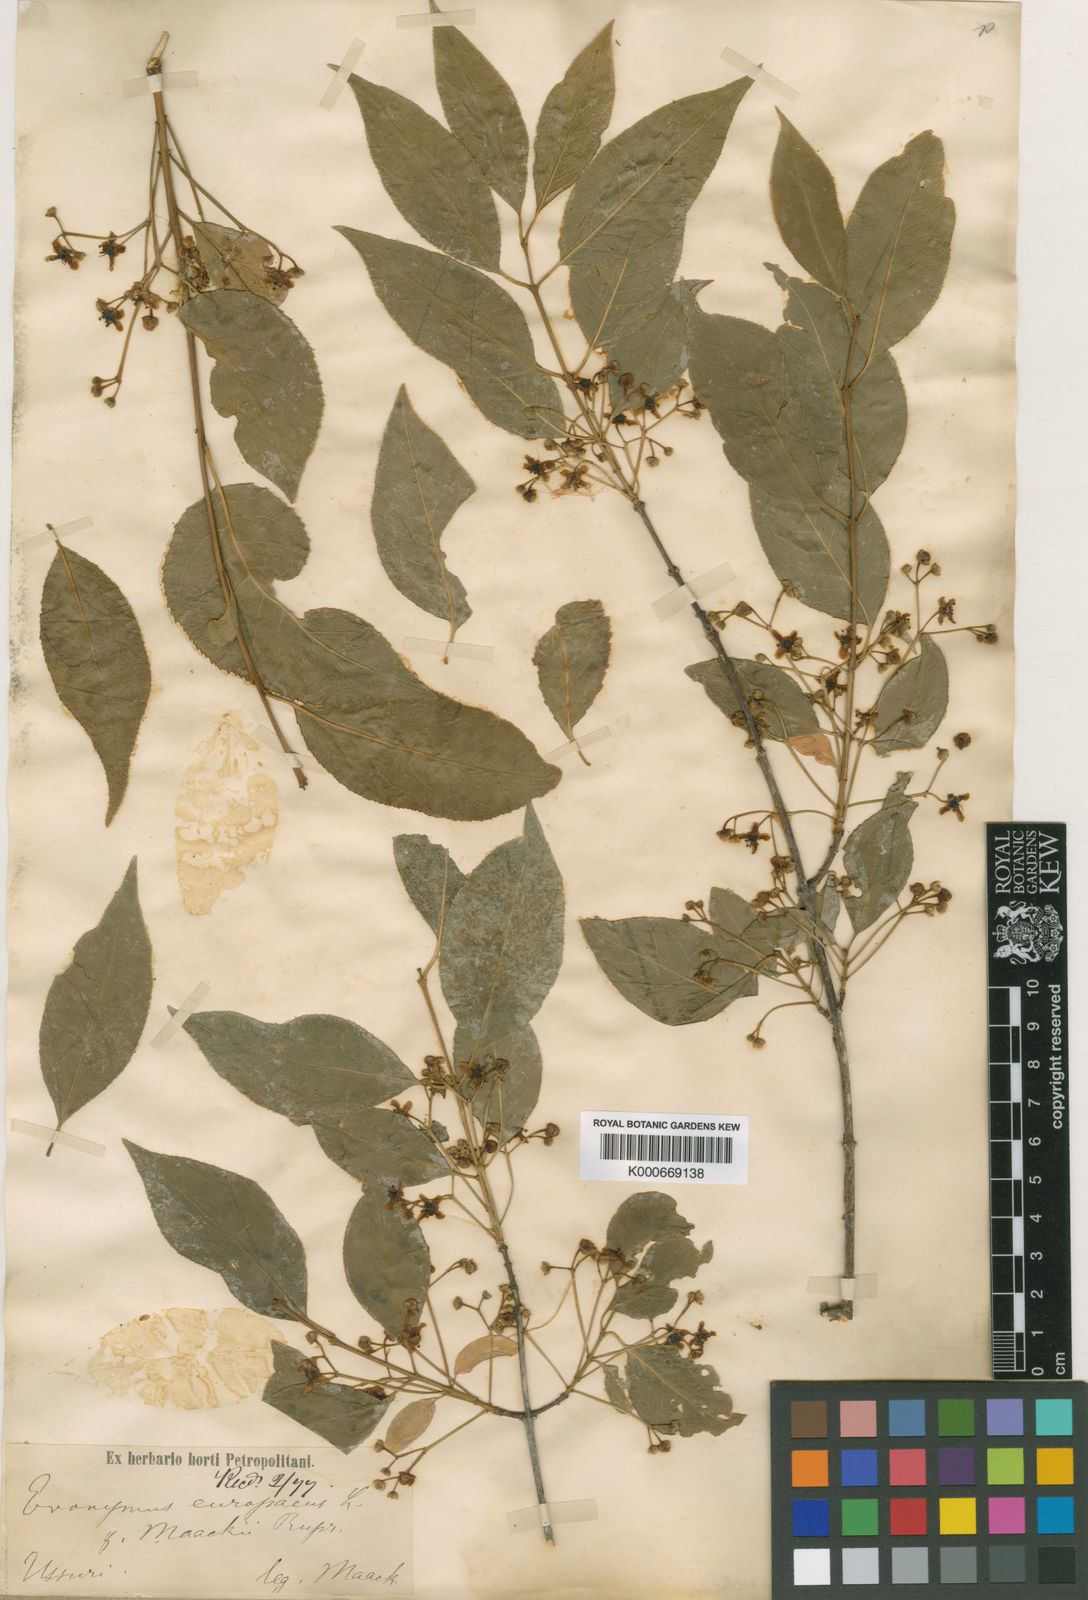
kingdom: Plantae
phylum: Tracheophyta
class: Magnoliopsida
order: Celastrales
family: Celastraceae
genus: Euonymus
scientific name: Euonymus maackii
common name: Hamilton's spindletree
